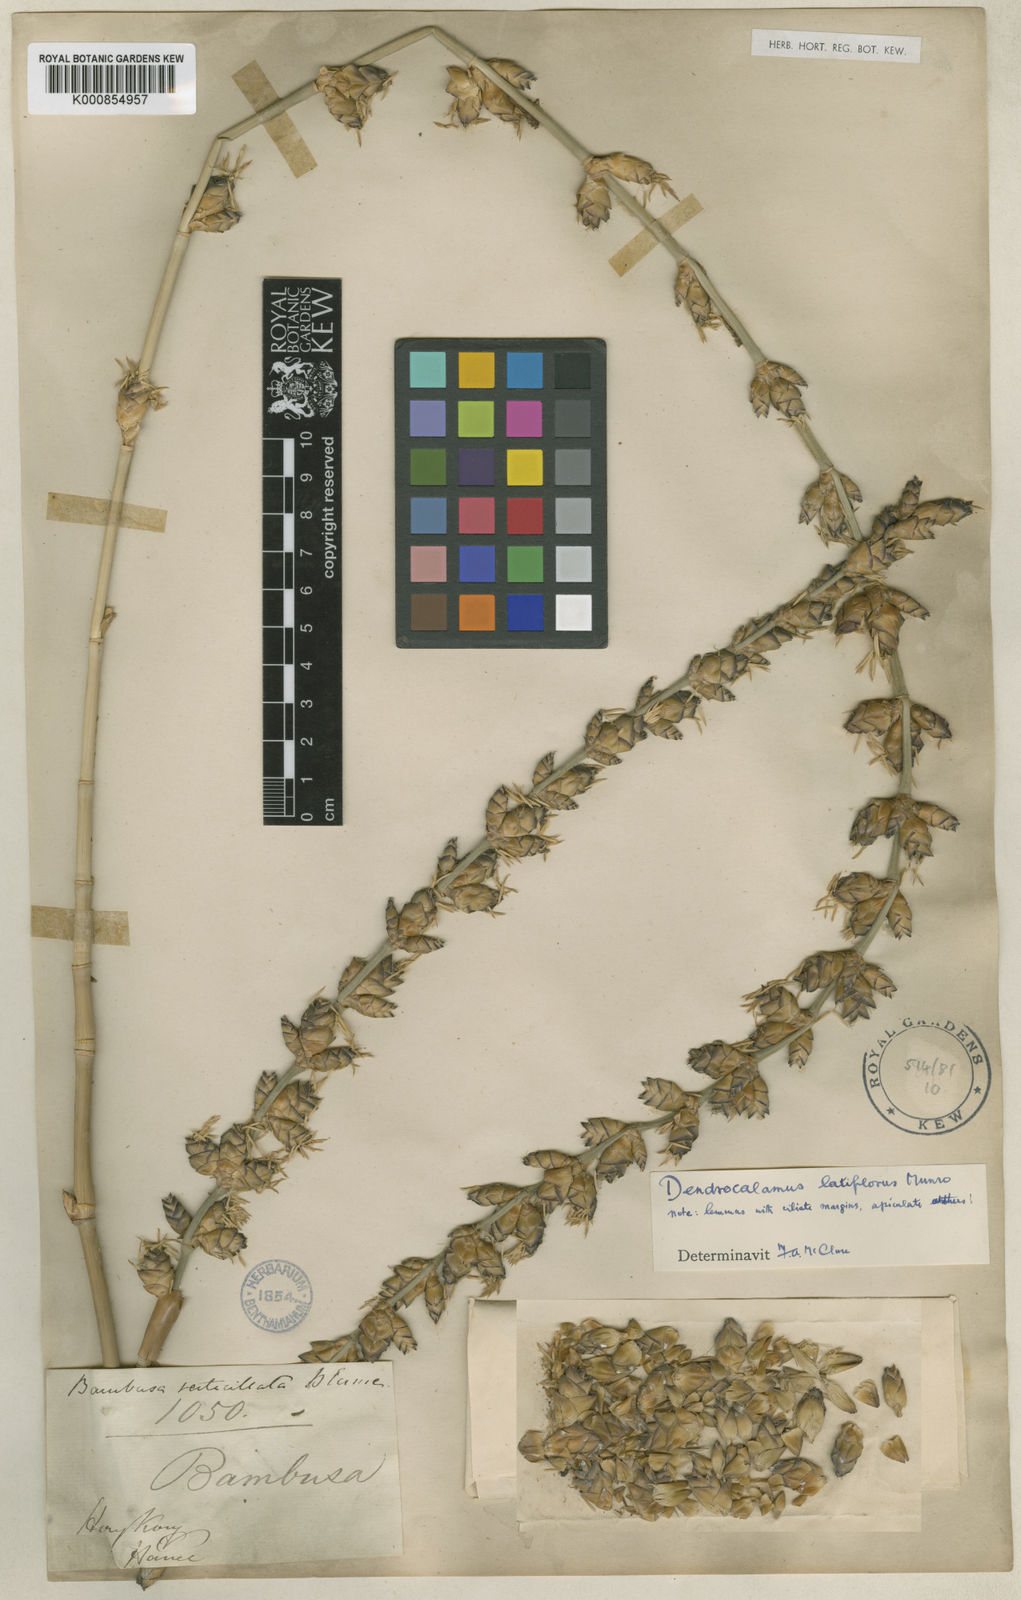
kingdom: Plantae
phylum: Tracheophyta
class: Liliopsida
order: Poales
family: Poaceae
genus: Dendrocalamus
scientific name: Dendrocalamus latiflorus
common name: Giant bamboo
